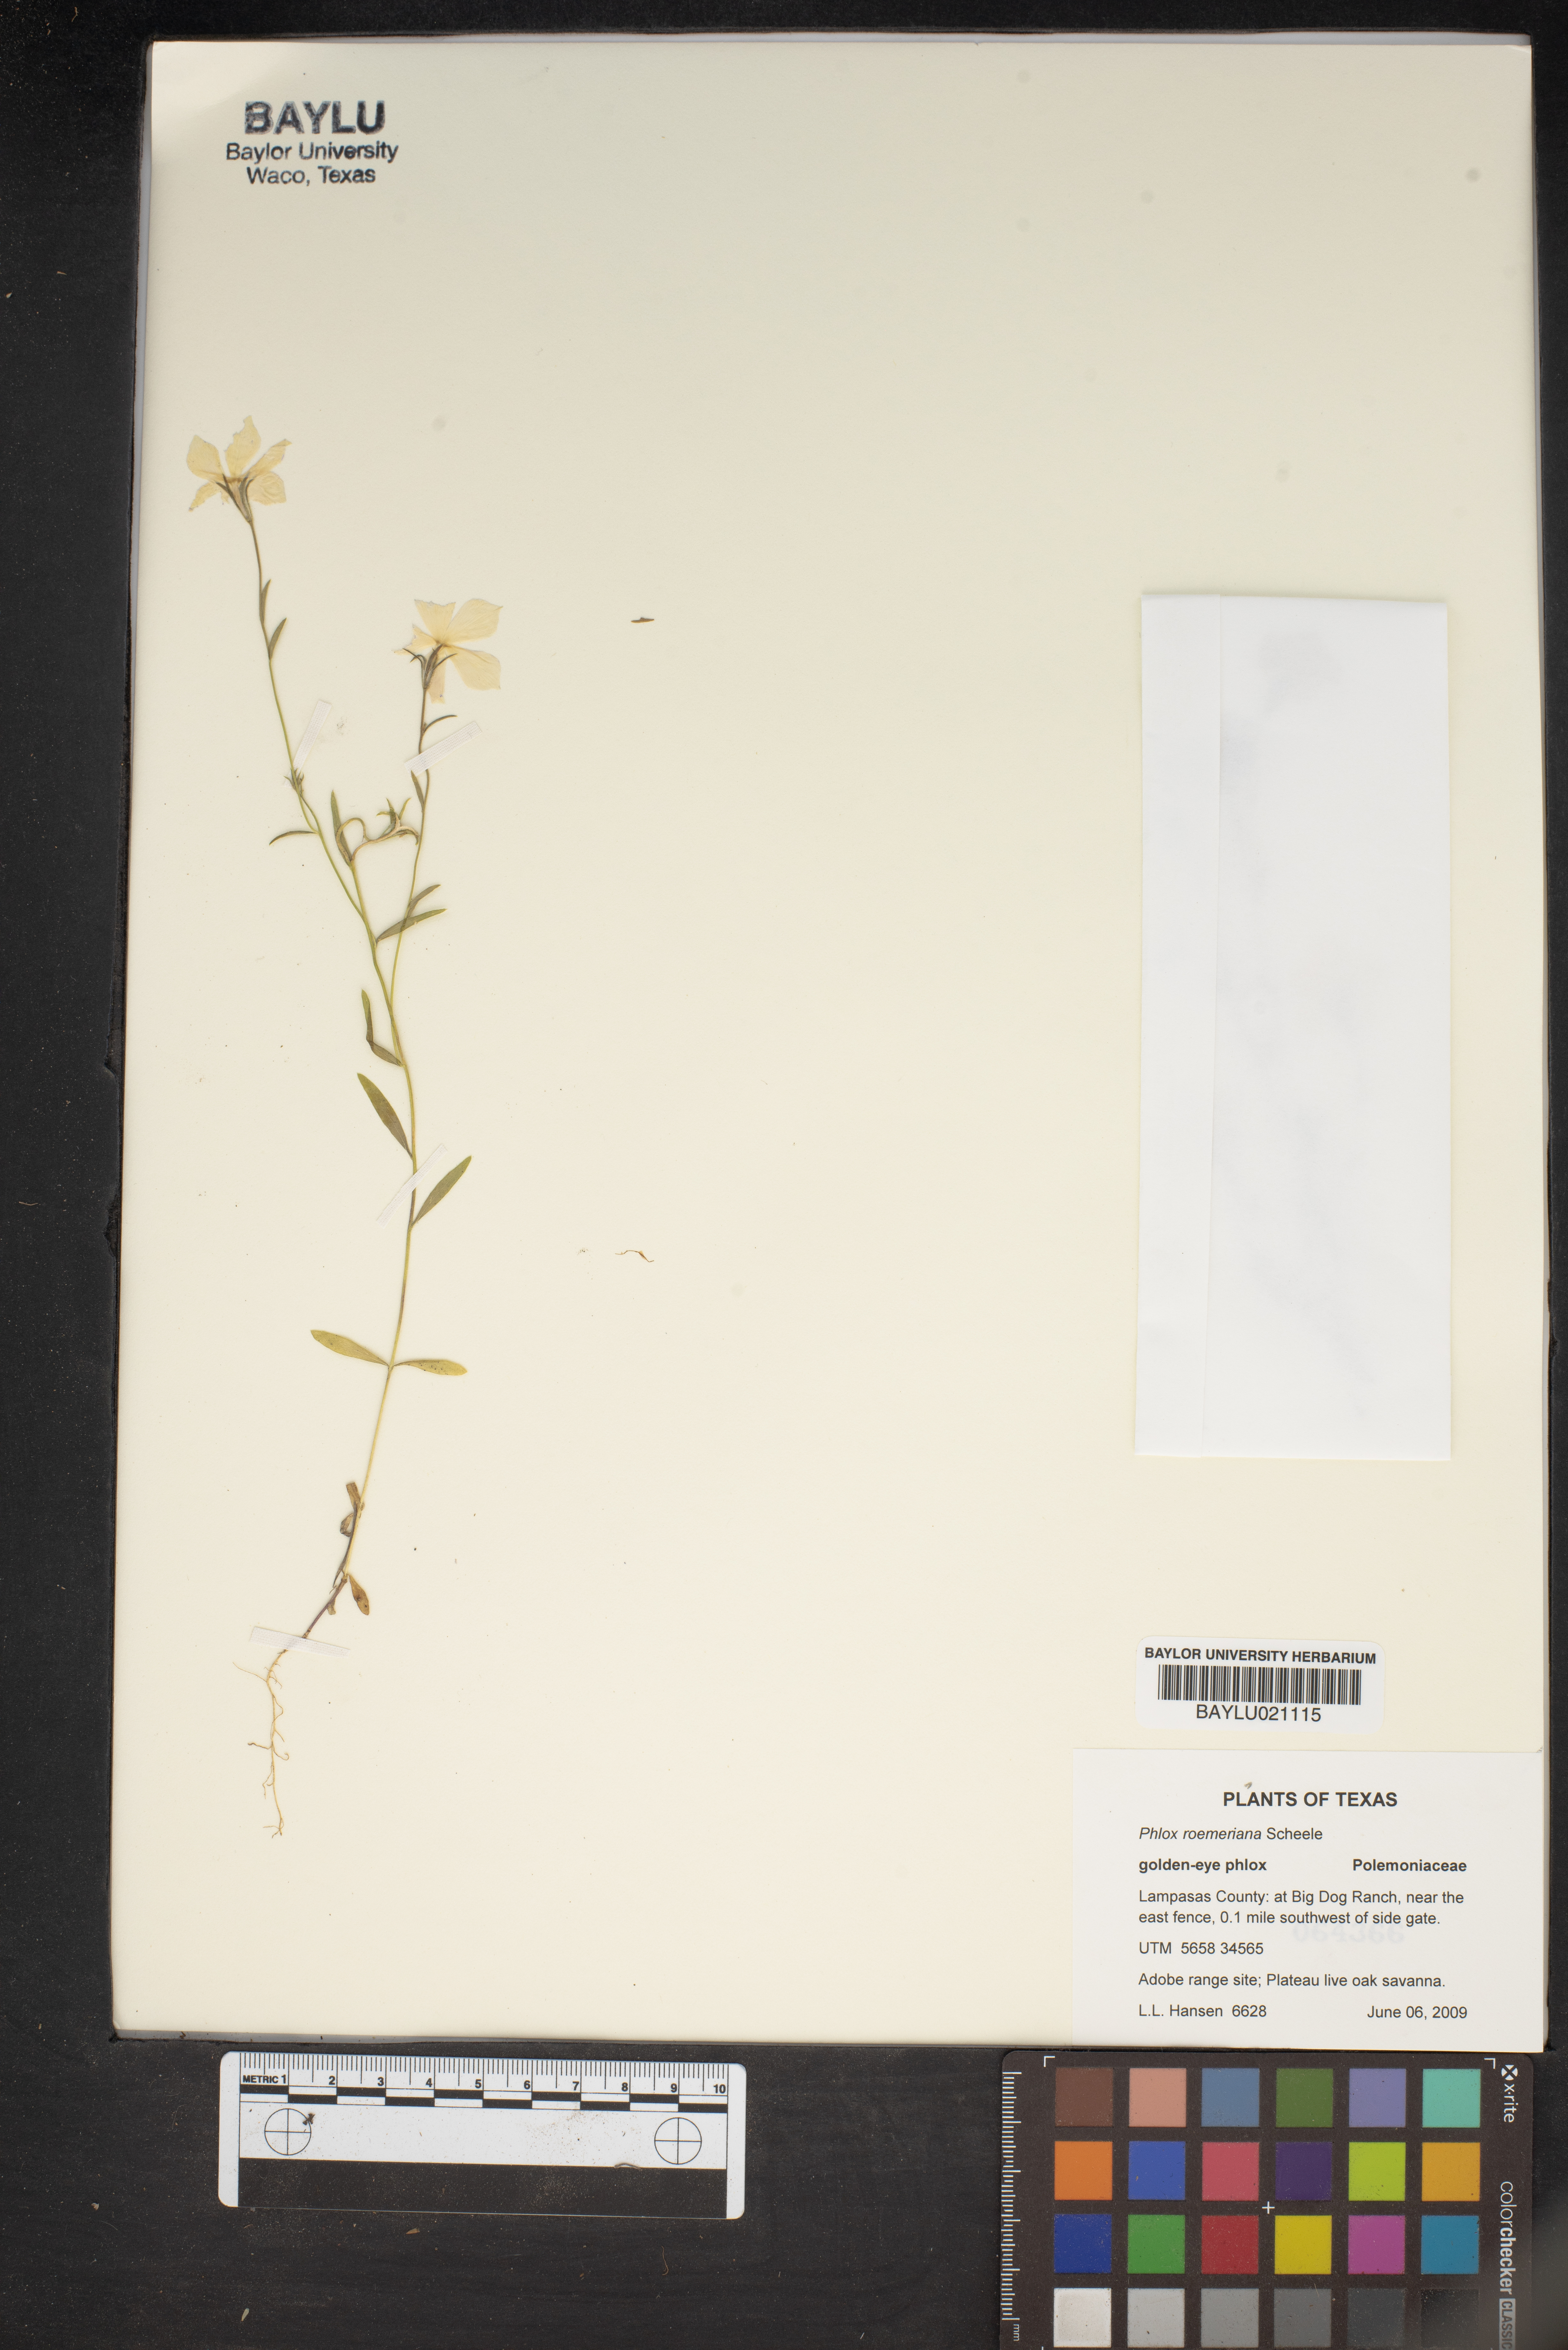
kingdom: Plantae
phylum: Tracheophyta
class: Magnoliopsida
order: Ericales
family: Polemoniaceae
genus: Phlox
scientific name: Phlox roemeriana
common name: Roemer's phlox
